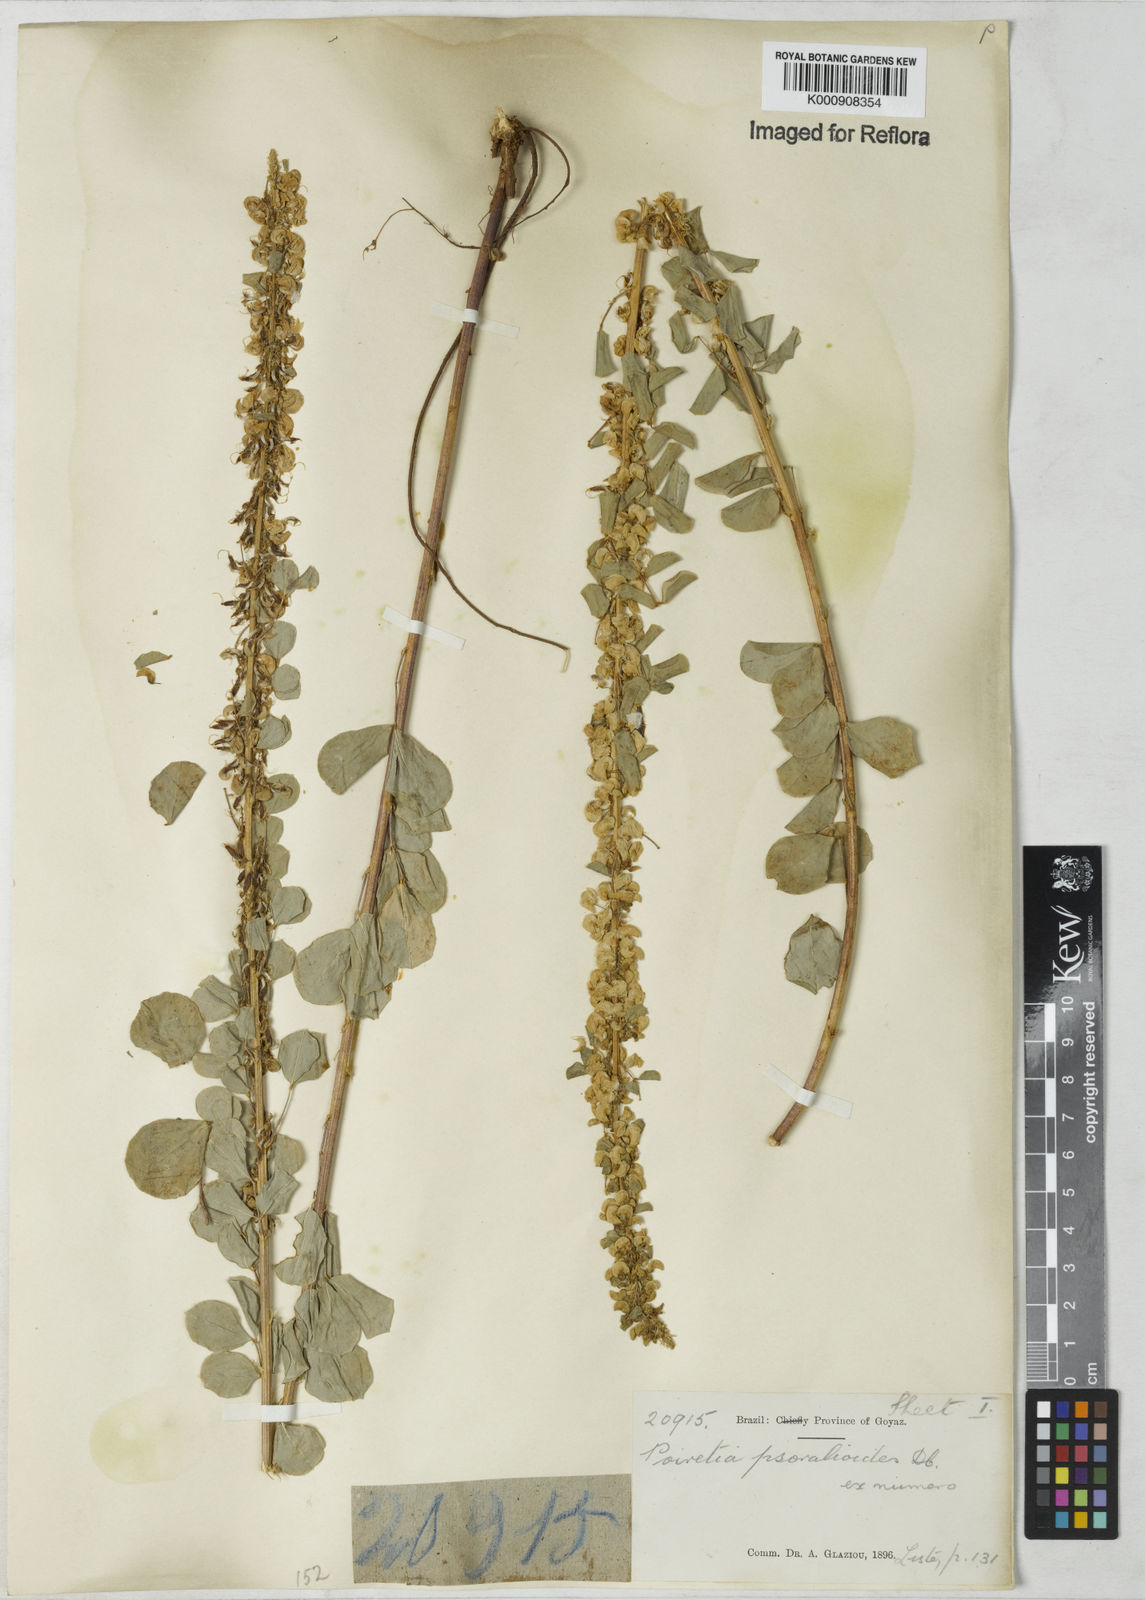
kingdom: Plantae
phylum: Tracheophyta
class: Magnoliopsida
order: Fabales
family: Fabaceae
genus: Poiretia
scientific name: Poiretia
